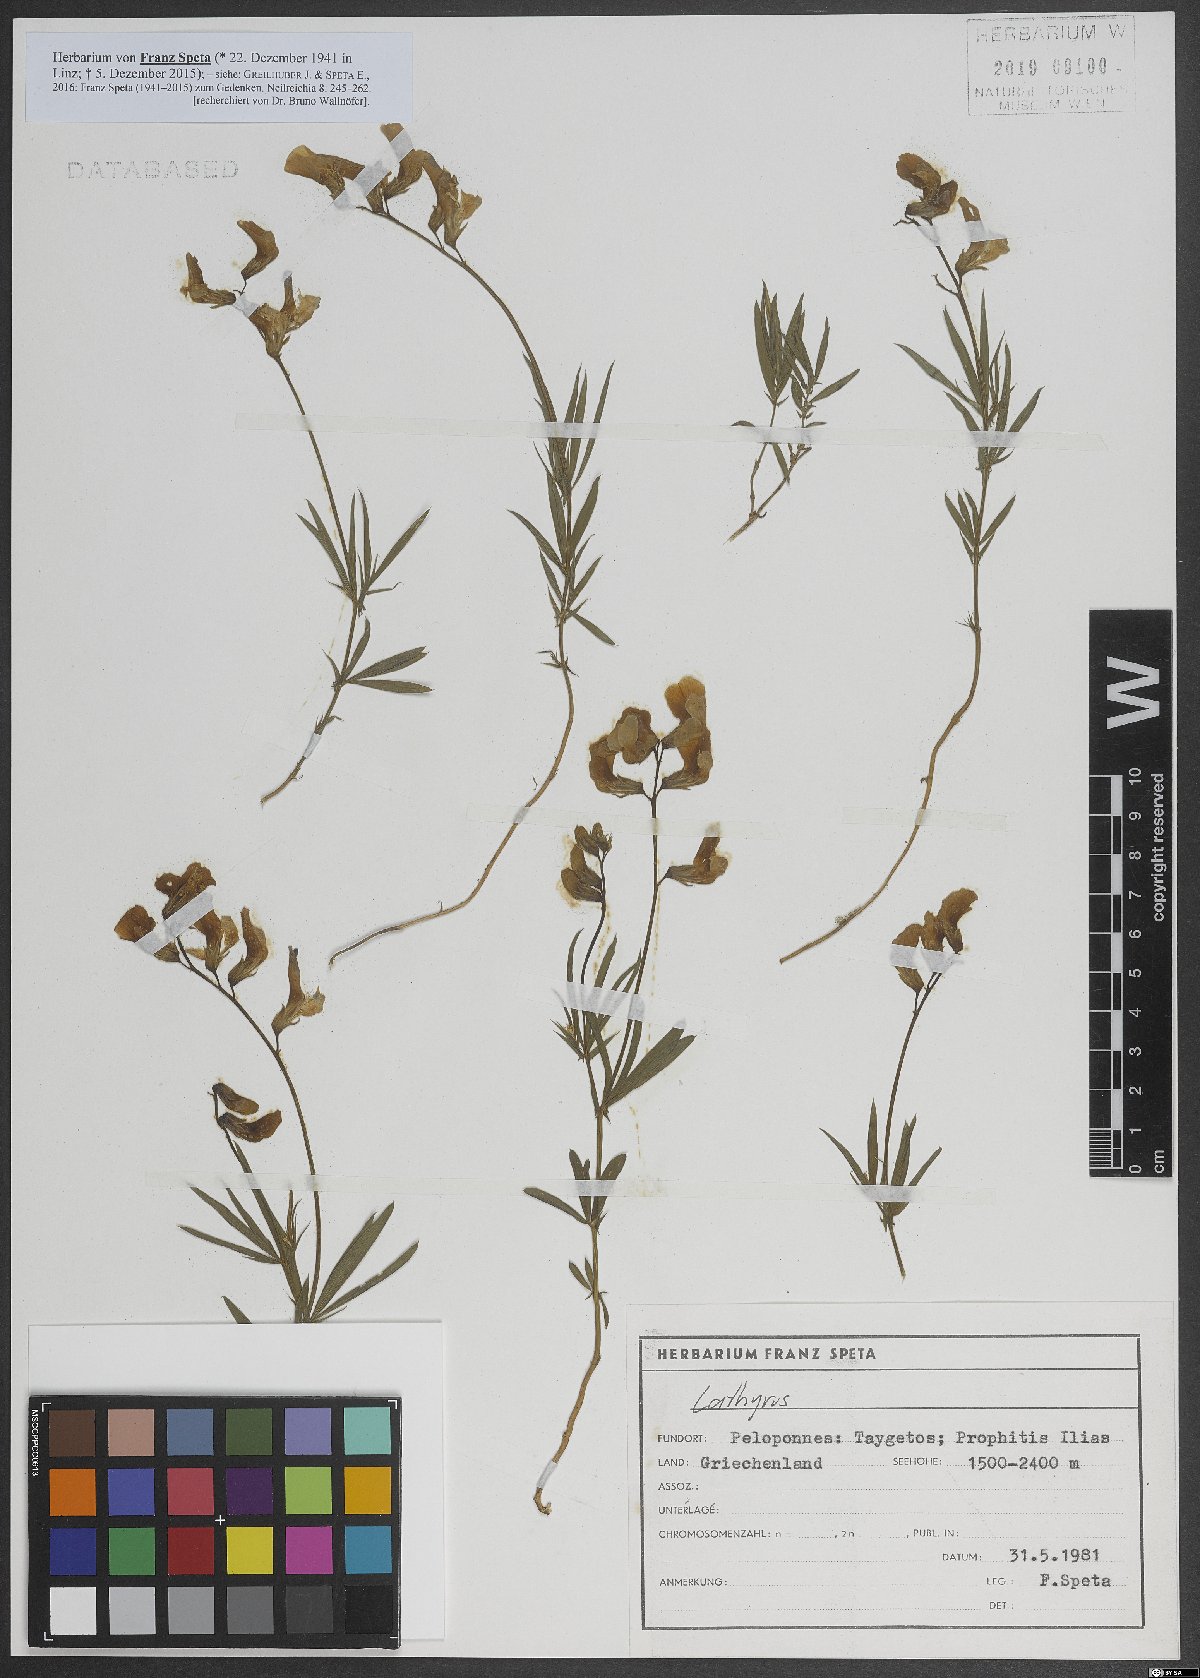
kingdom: Plantae
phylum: Tracheophyta
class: Magnoliopsida
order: Fabales
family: Fabaceae
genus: Lathyrus
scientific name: Lathyrus
